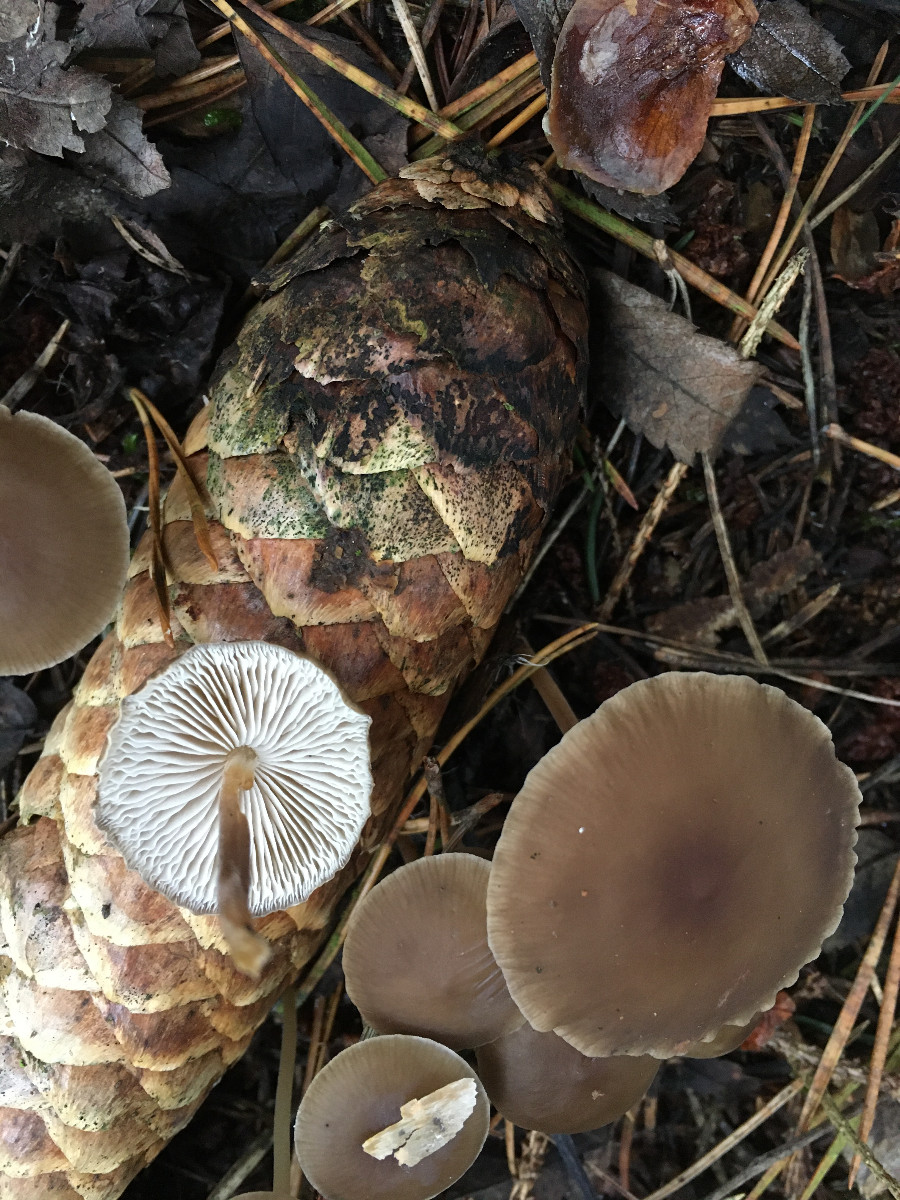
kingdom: Fungi
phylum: Basidiomycota
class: Agaricomycetes
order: Agaricales
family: Physalacriaceae
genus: Strobilurus
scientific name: Strobilurus esculentus
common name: gran-koglehat
